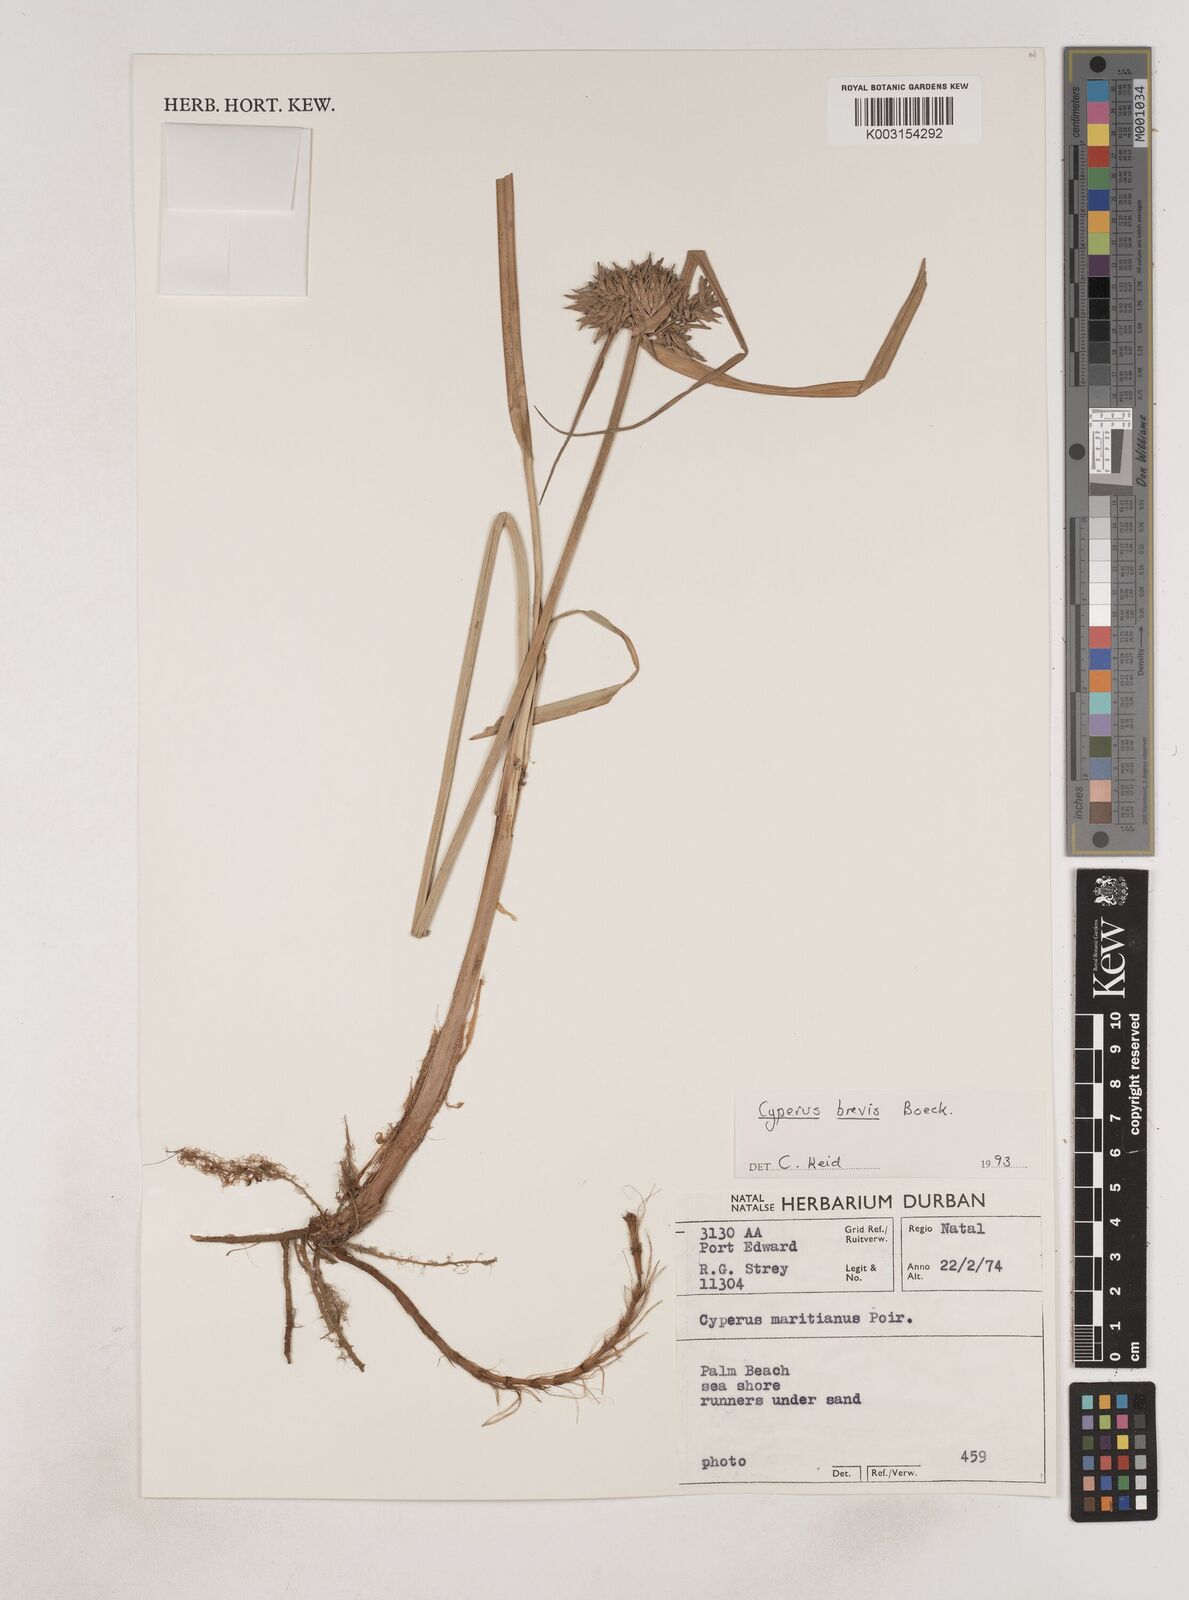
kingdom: Plantae
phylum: Tracheophyta
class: Liliopsida
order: Poales
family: Cyperaceae
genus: Cyperus
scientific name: Cyperus congestus
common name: Dense flat sedge
